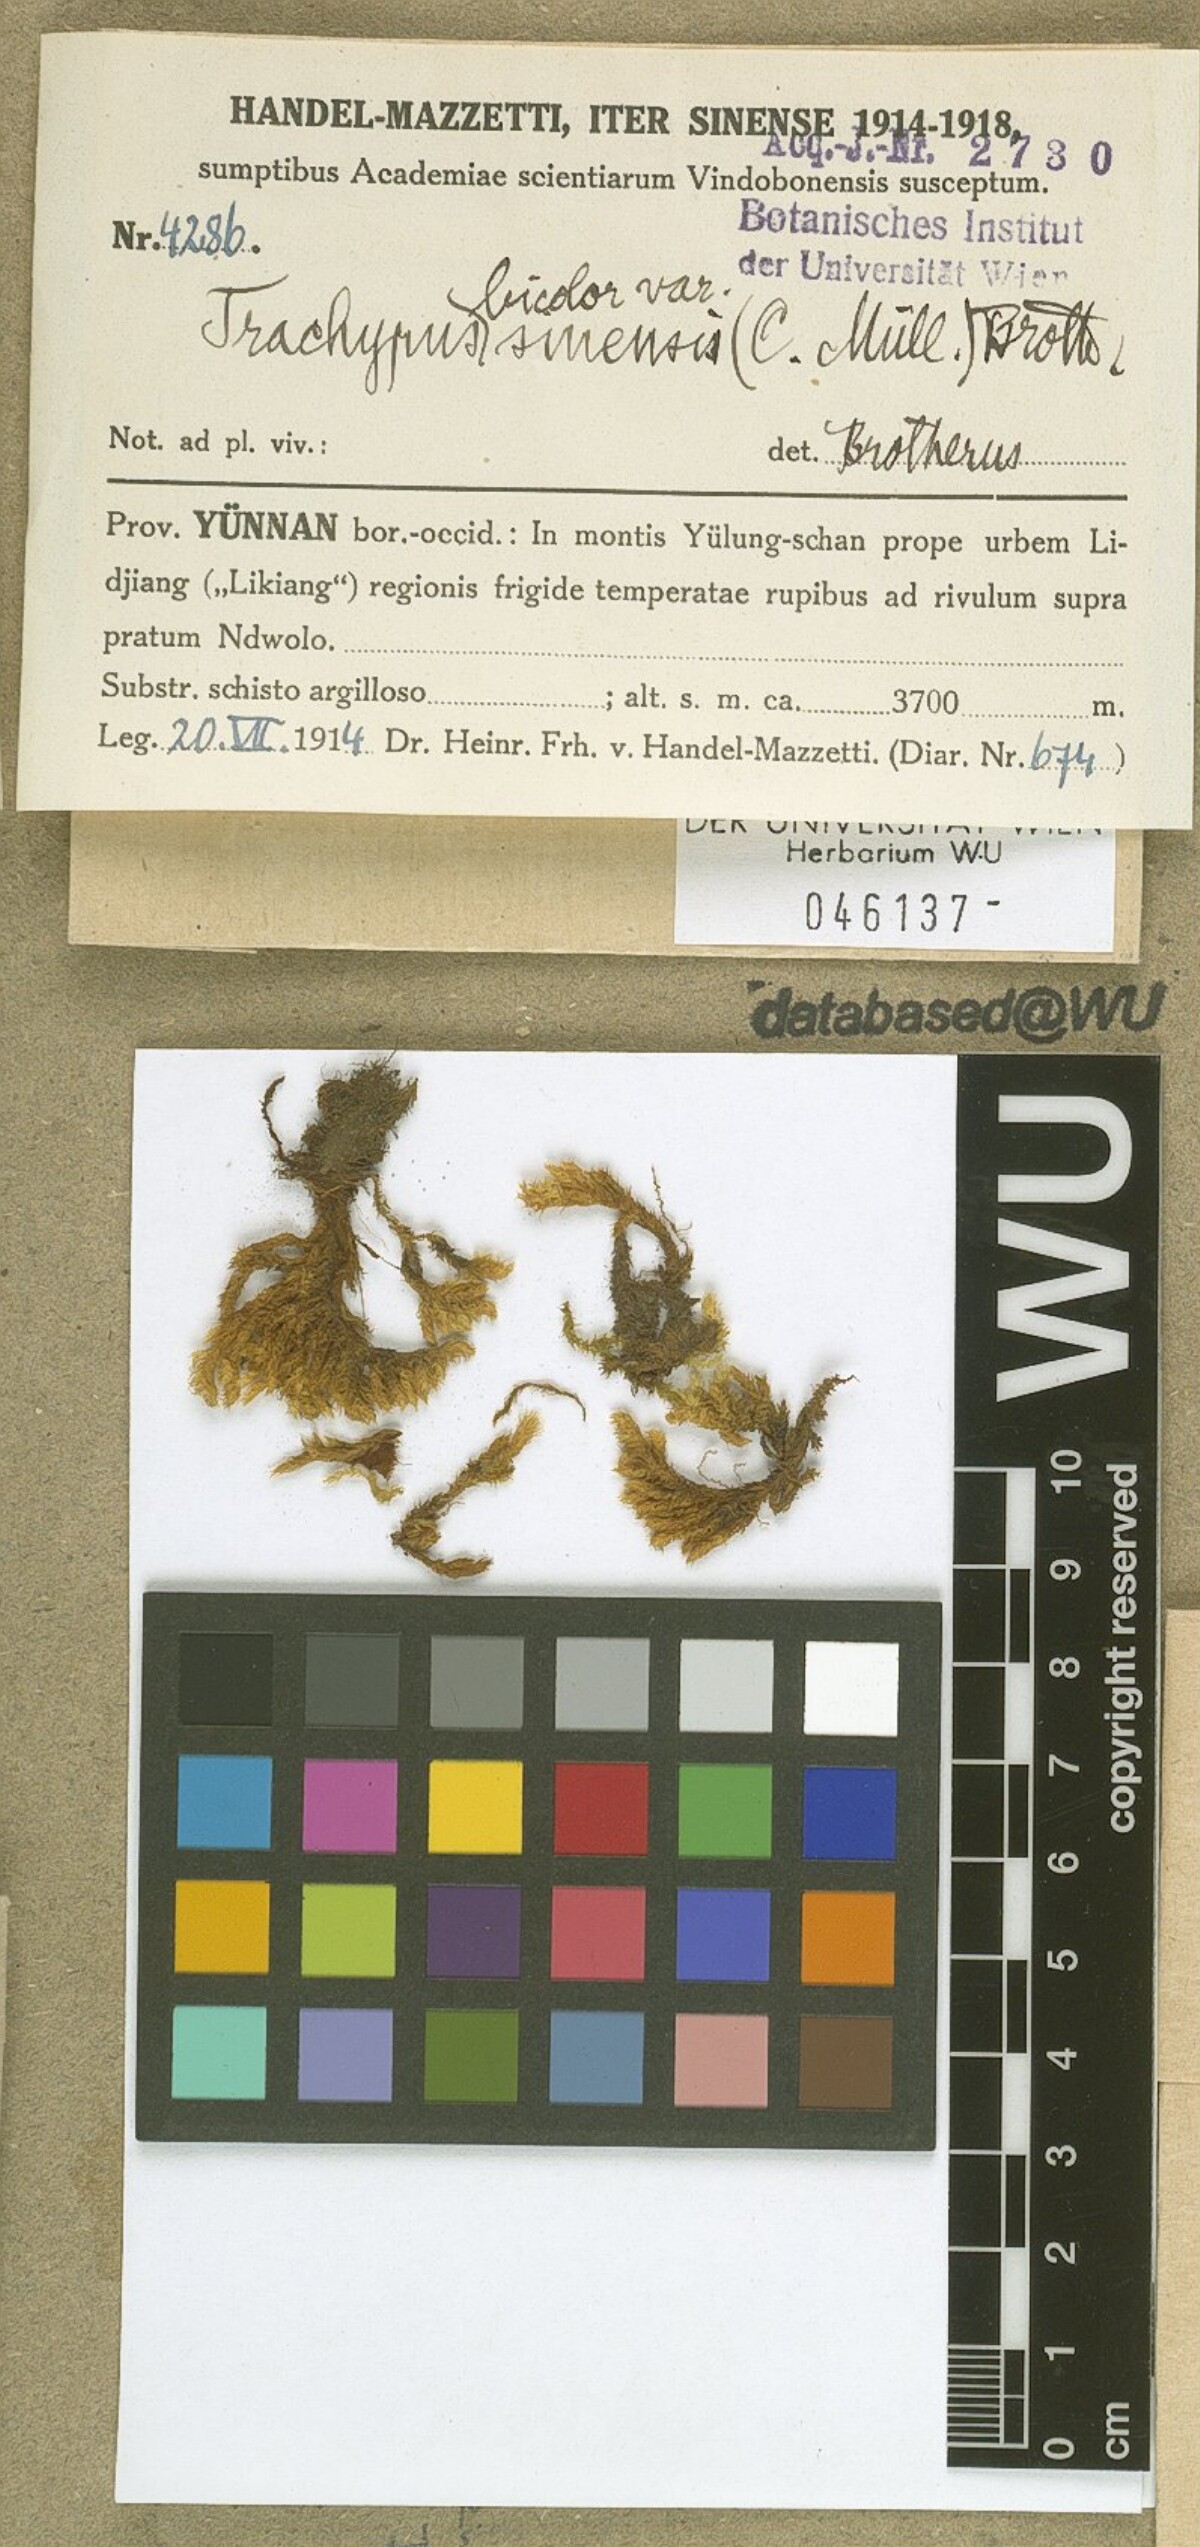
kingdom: Plantae
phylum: Bryophyta
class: Bryopsida
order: Hypnales
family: Meteoriaceae
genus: Trachypus
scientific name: Trachypus bicolor
